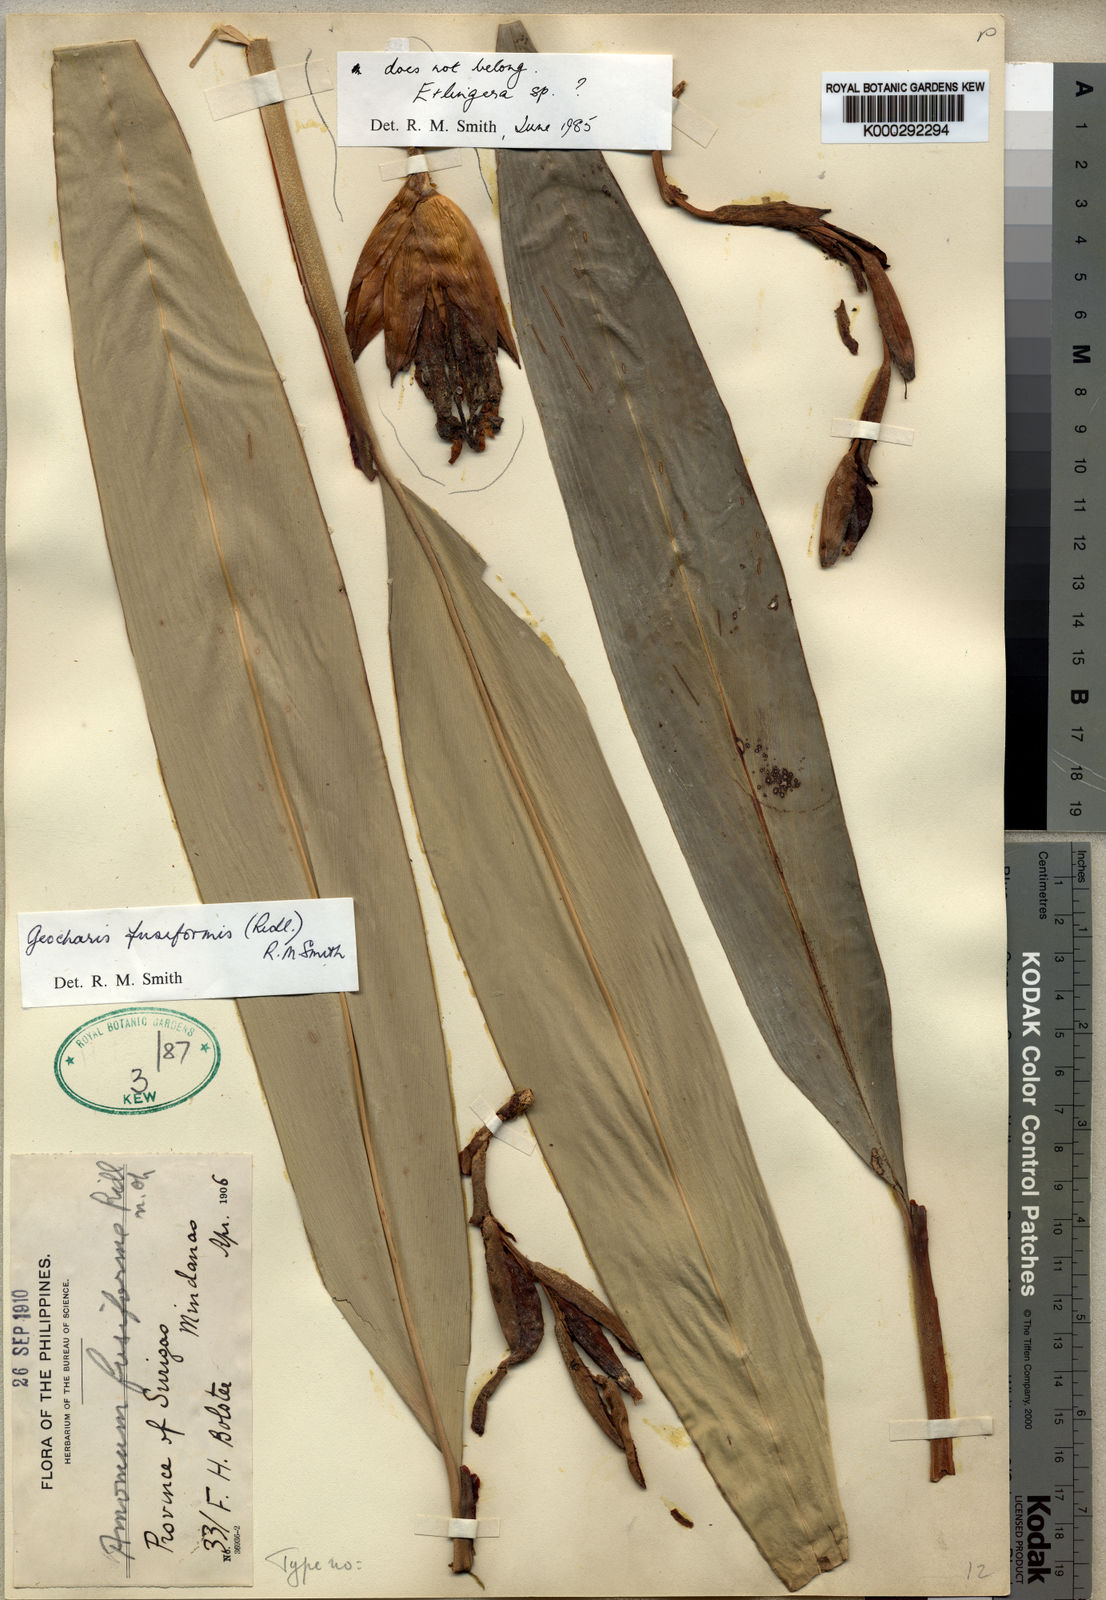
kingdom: Plantae
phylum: Tracheophyta
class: Liliopsida
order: Zingiberales
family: Zingiberaceae
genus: Geocharis
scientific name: Geocharis fusiformis
